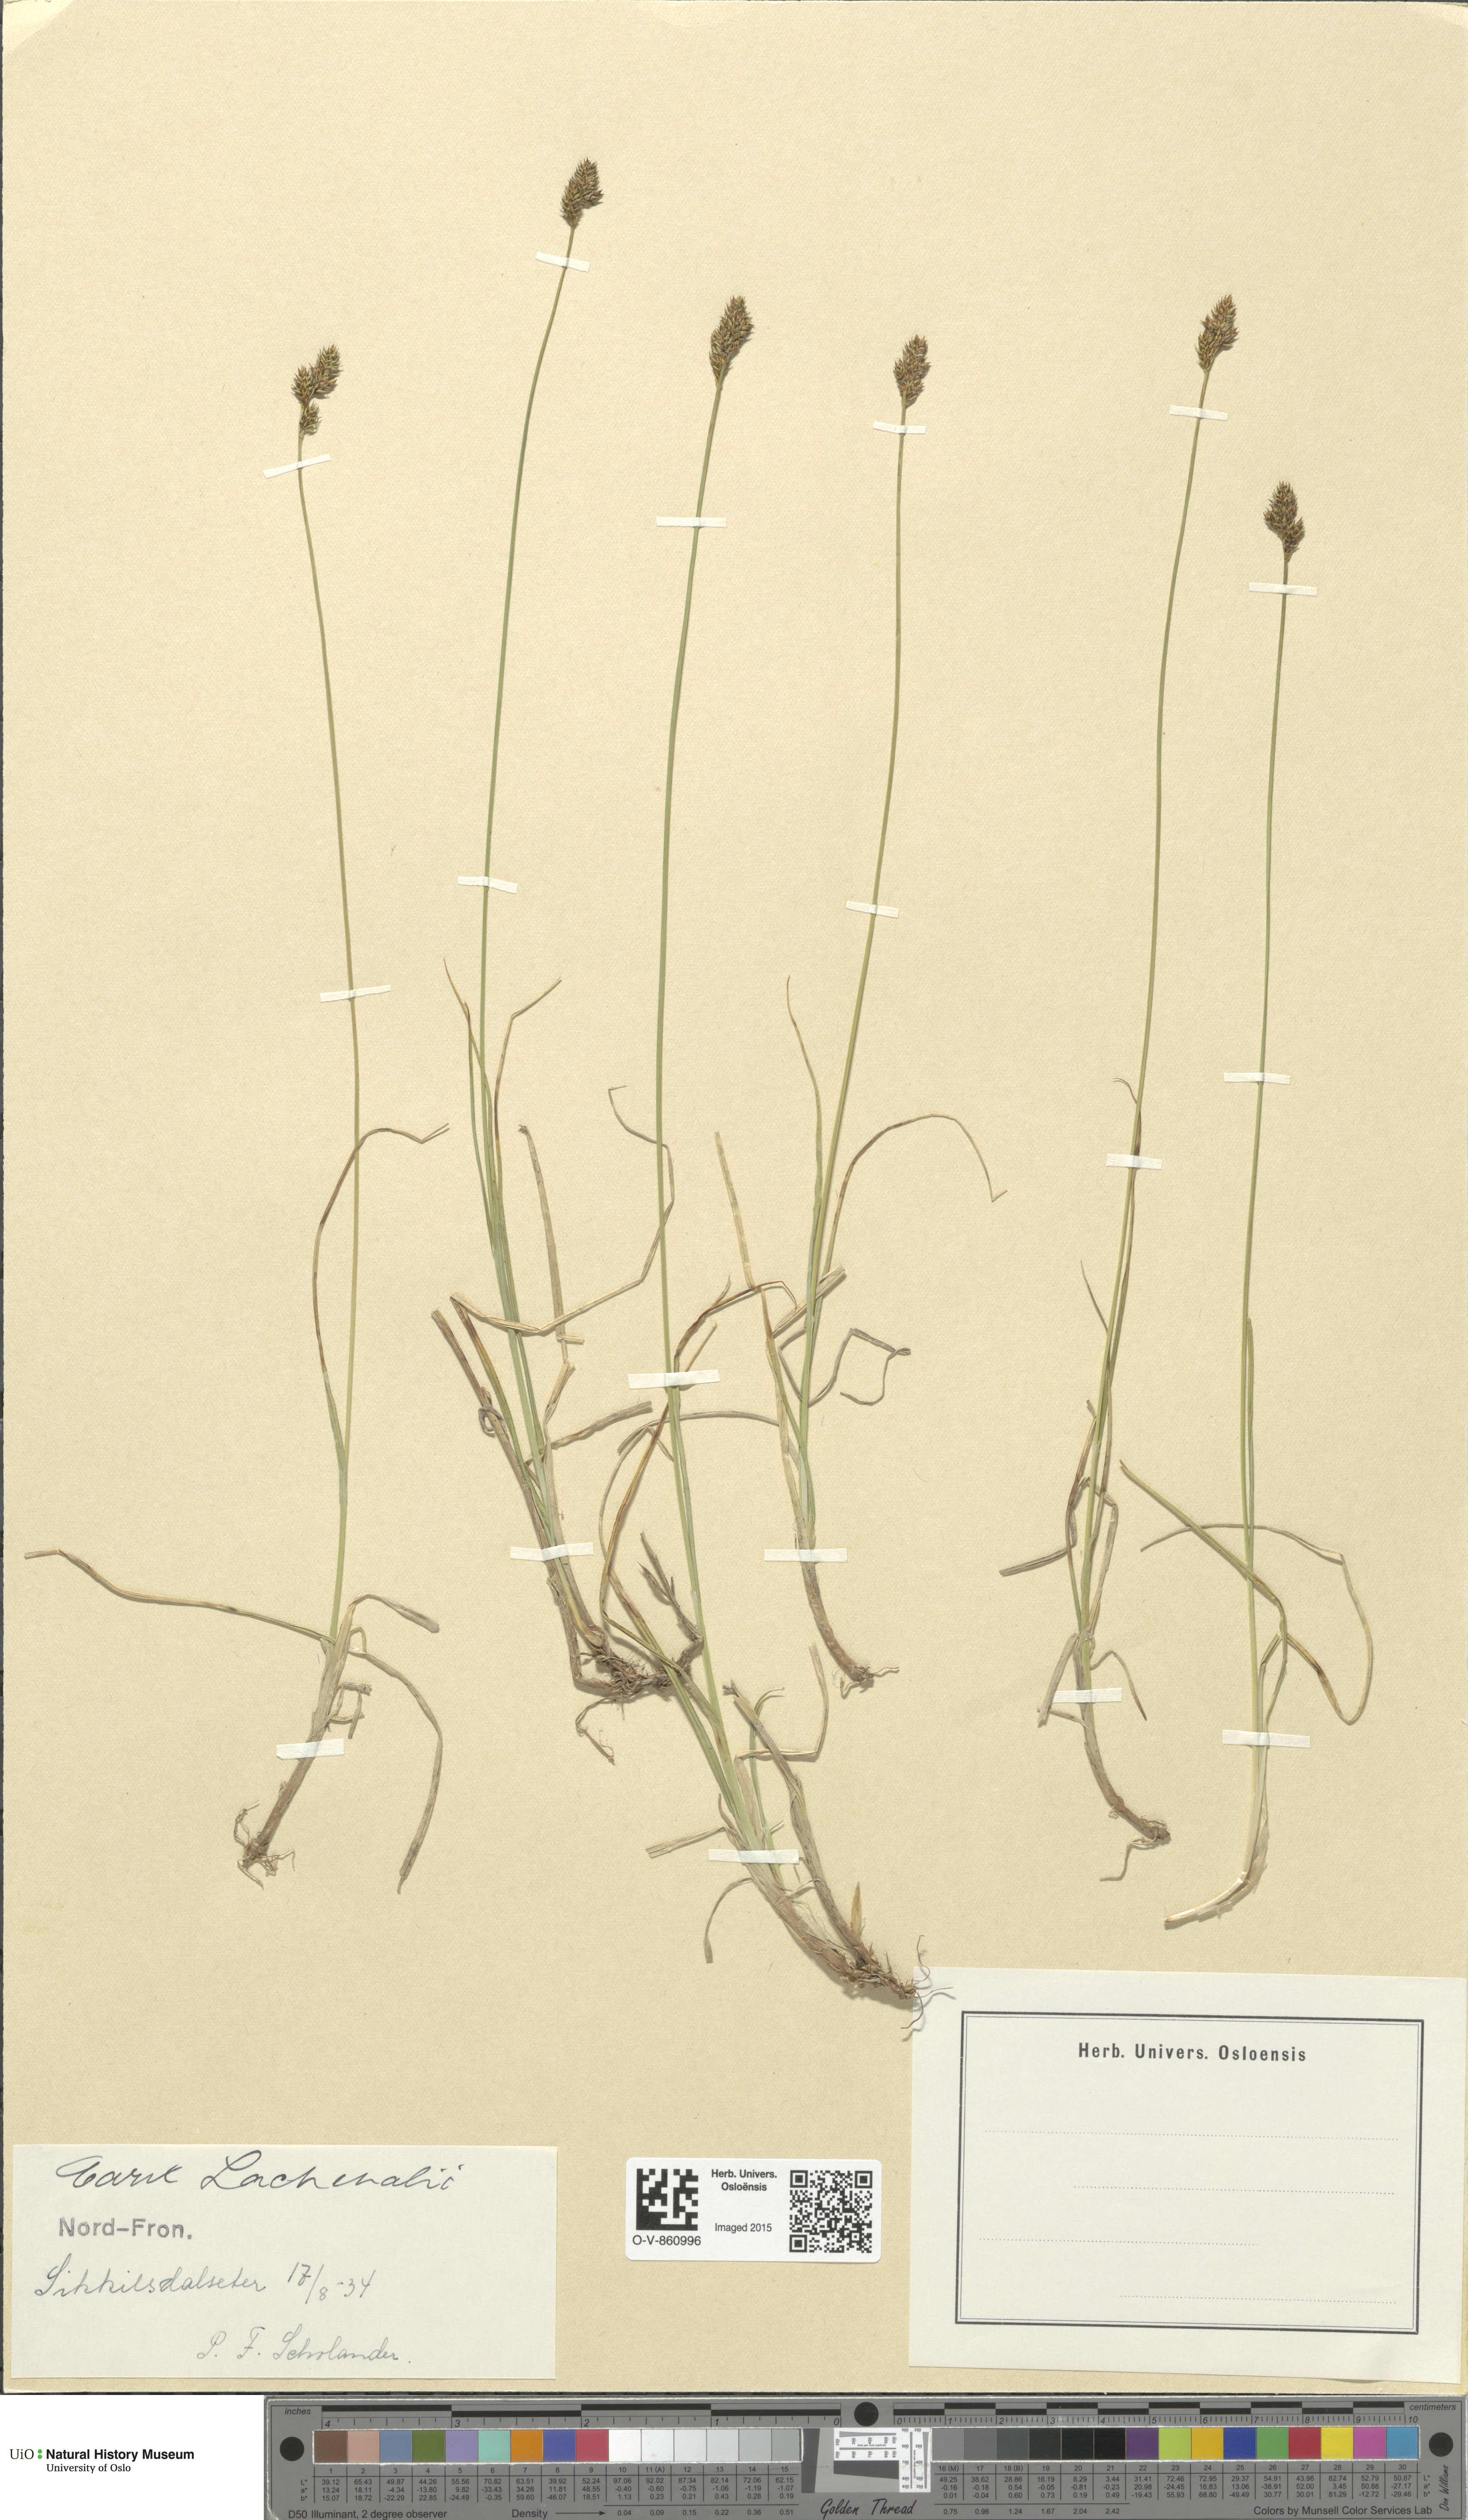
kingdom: Plantae
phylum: Tracheophyta
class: Liliopsida
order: Poales
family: Cyperaceae
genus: Carex
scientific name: Carex lachenalii
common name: Hare's-foot sedge
